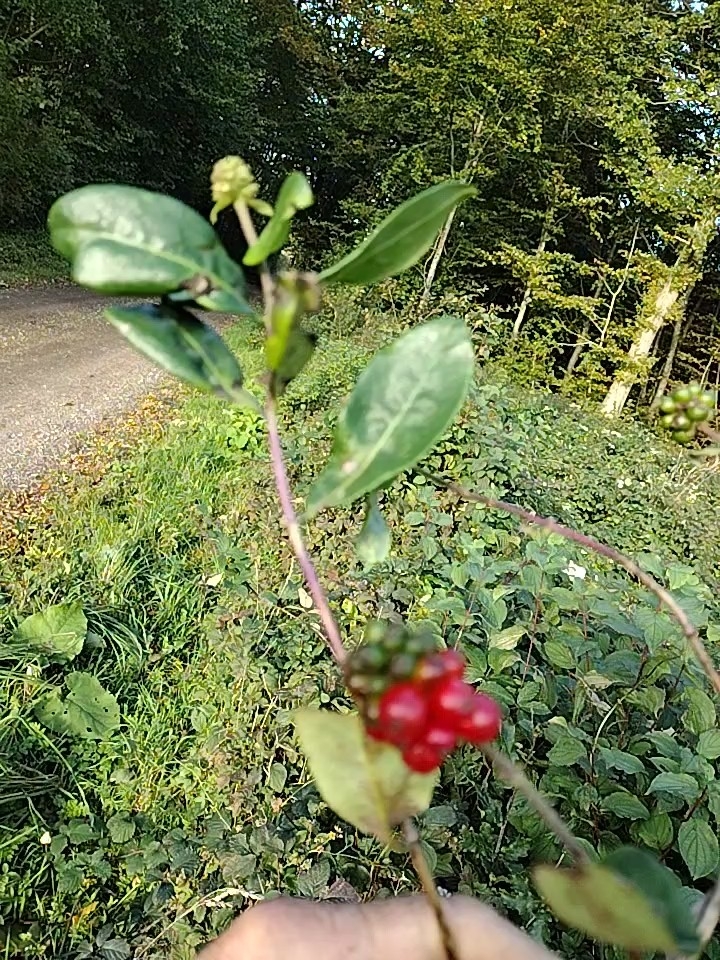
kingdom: Plantae
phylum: Tracheophyta
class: Magnoliopsida
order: Dipsacales
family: Caprifoliaceae
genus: Lonicera
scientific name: Lonicera periclymenum
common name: Almindelig gedeblad
